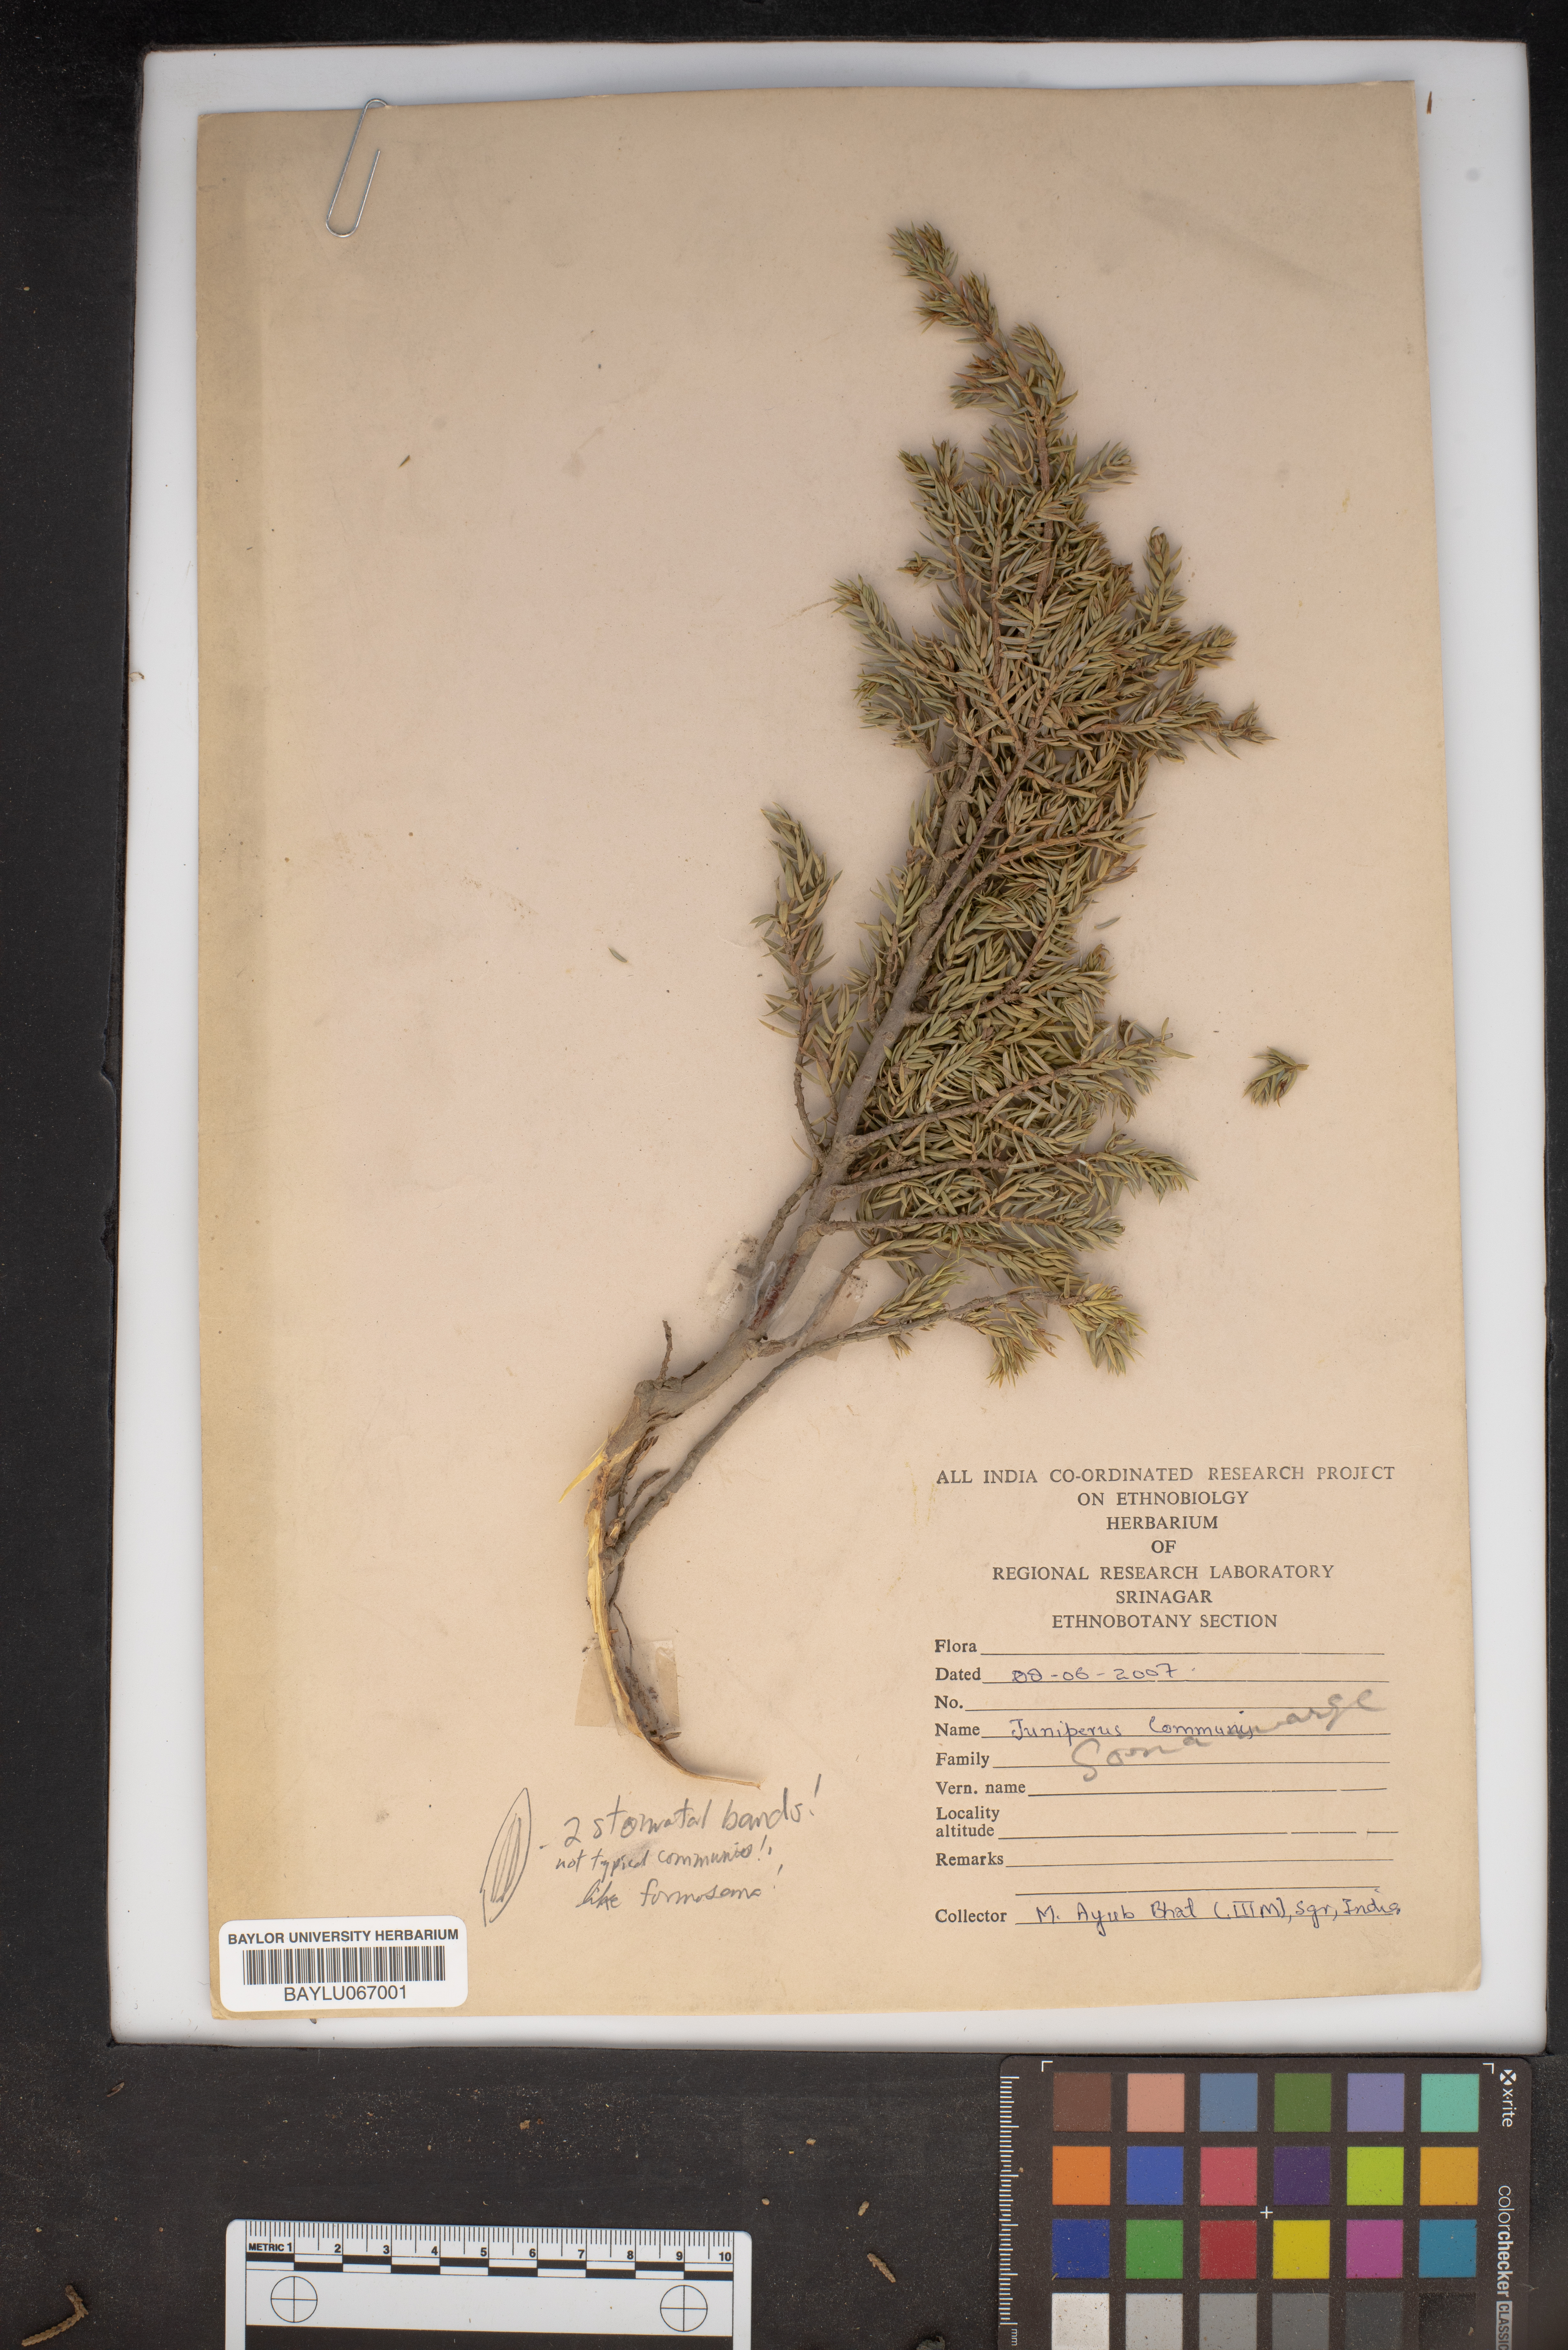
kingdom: Plantae
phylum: Tracheophyta
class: Pinopsida
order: Pinales
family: Cupressaceae
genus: Juniperus
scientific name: Juniperus communis
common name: Common juniper
